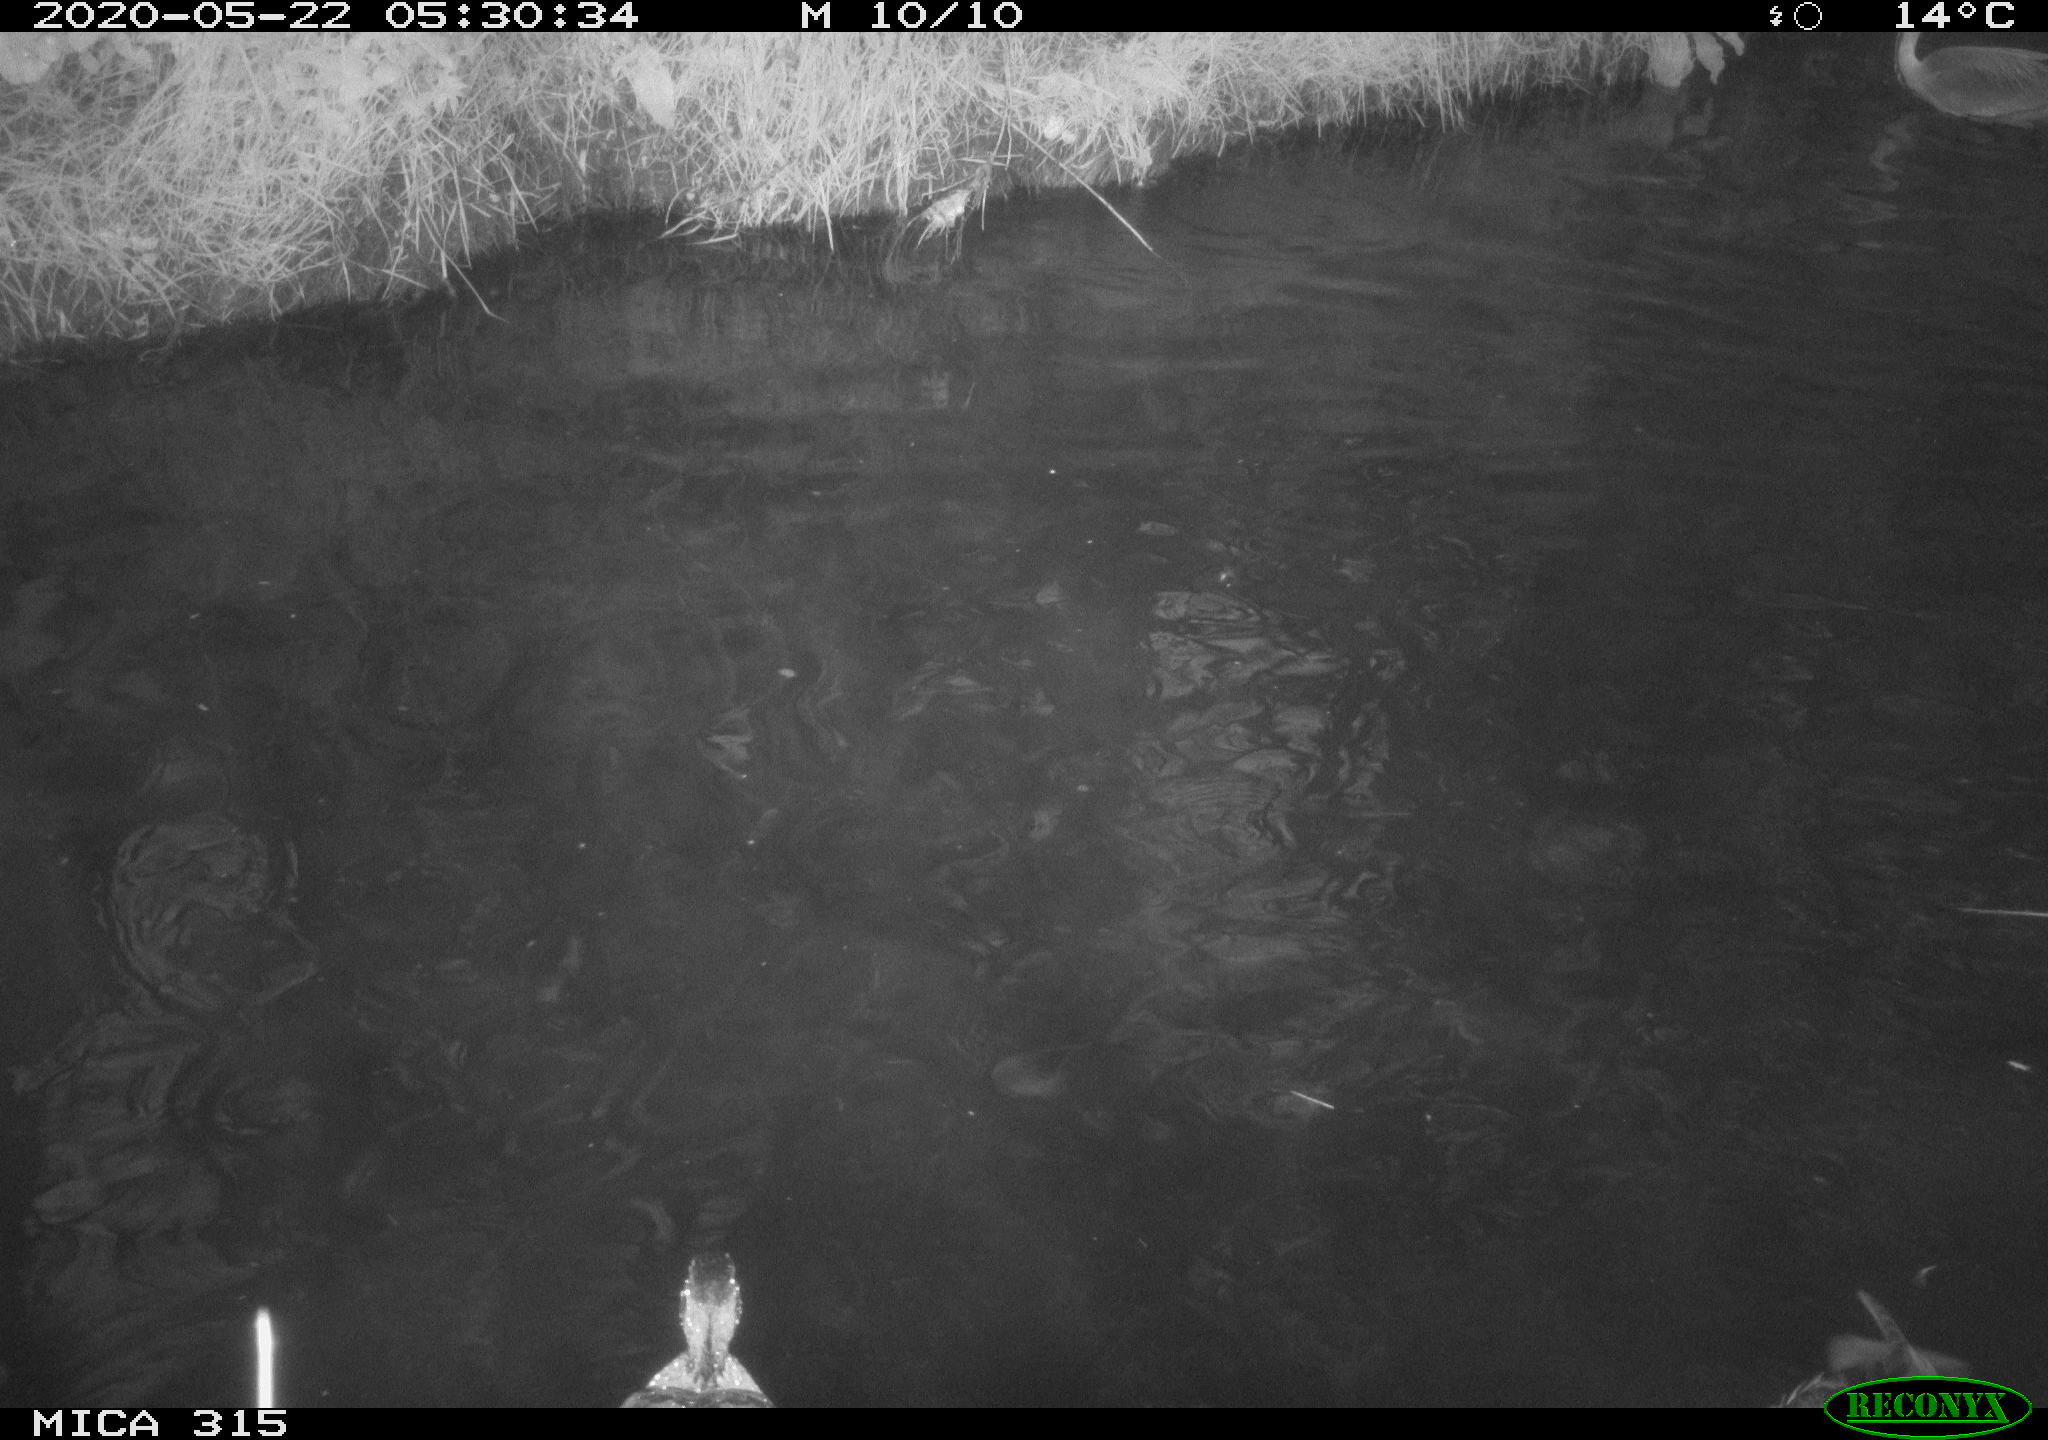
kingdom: Animalia
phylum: Chordata
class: Aves
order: Anseriformes
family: Anatidae
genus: Anas
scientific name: Anas platyrhynchos
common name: Mallard
